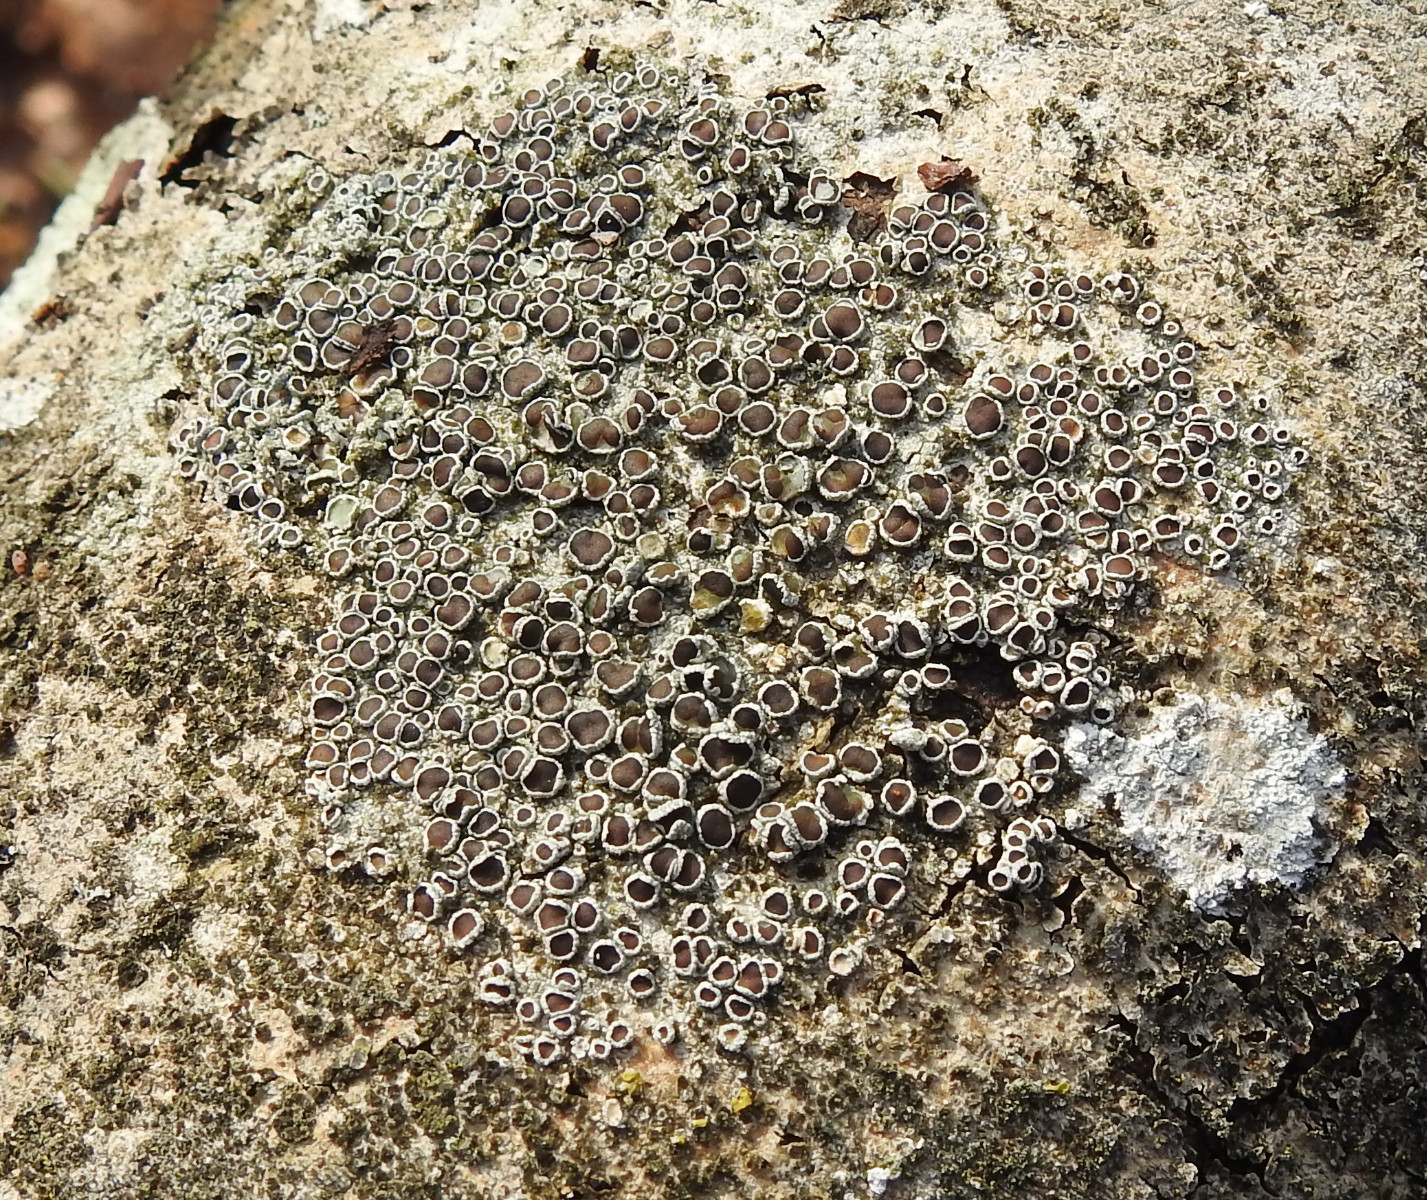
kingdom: Fungi
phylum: Ascomycota
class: Lecanoromycetes
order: Lecanorales
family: Lecanoraceae
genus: Lecanora
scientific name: Lecanora argentata
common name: sølv-kantskivelav
